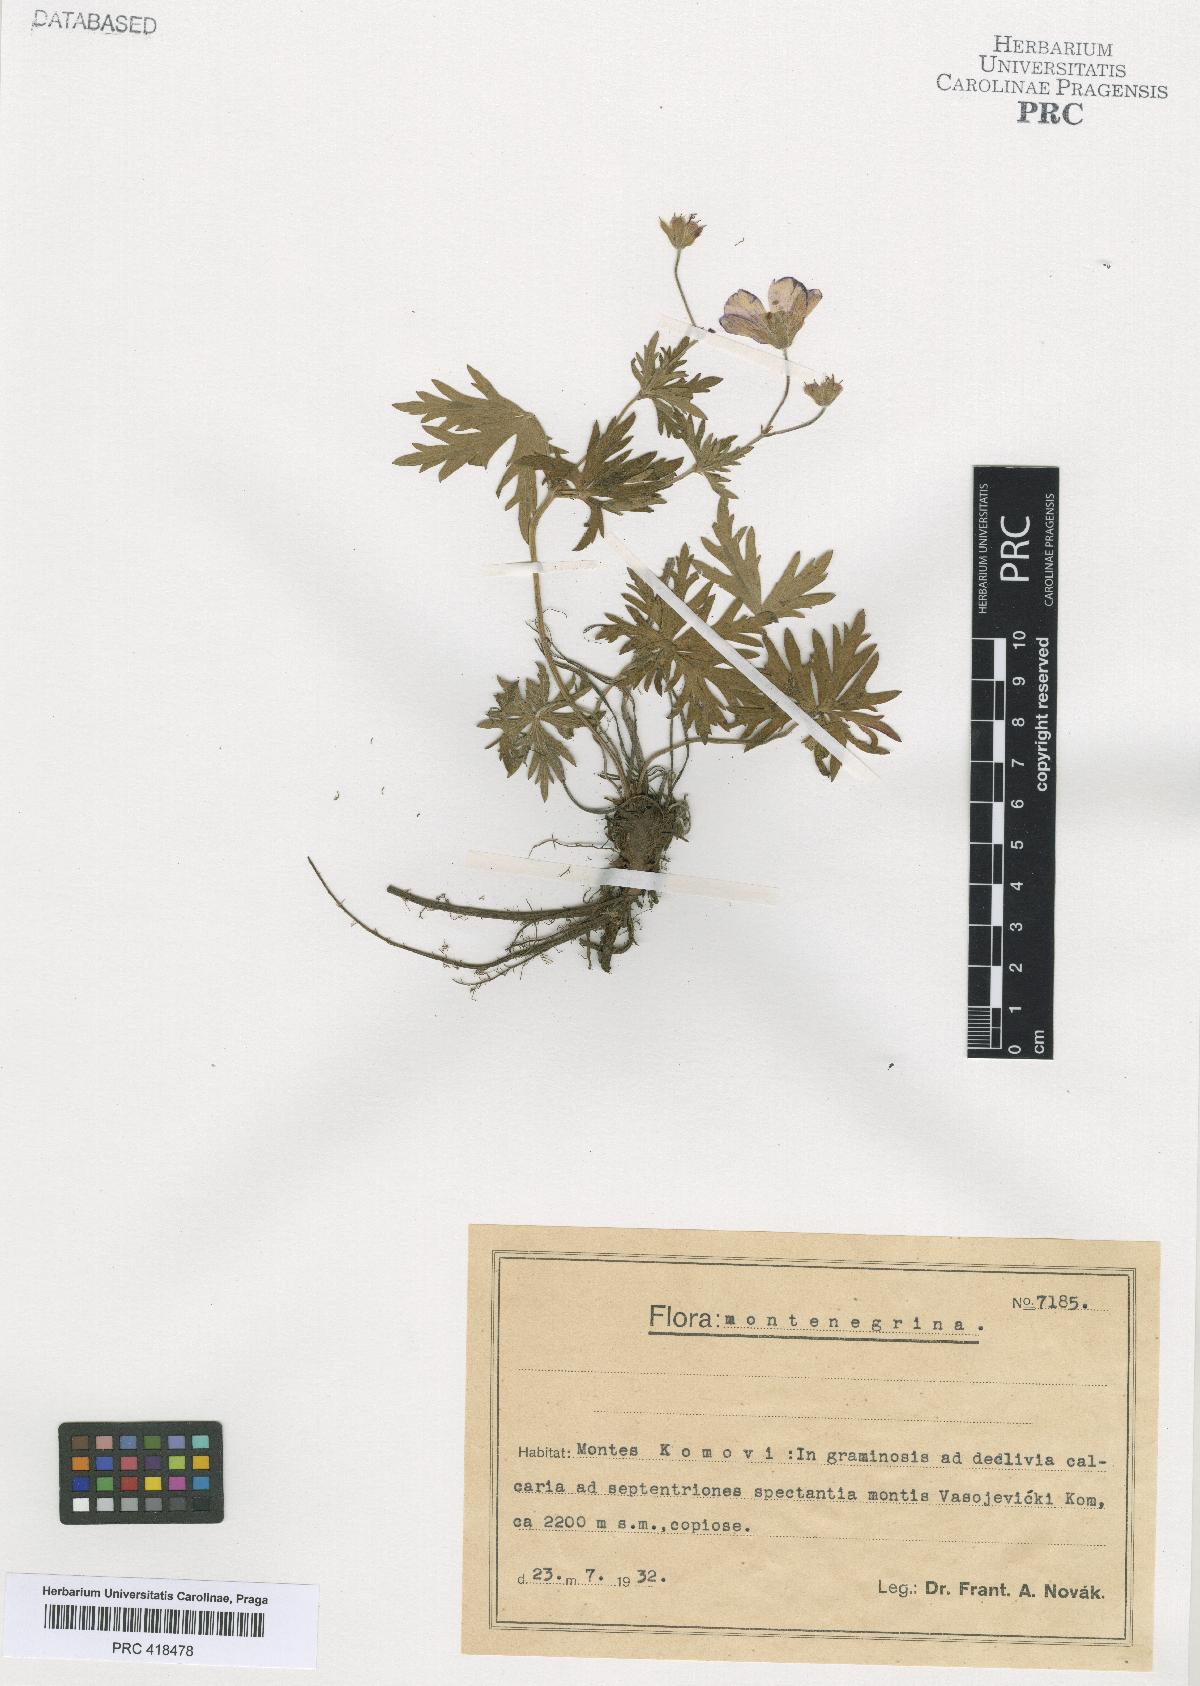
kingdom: Plantae
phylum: Tracheophyta
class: Magnoliopsida
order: Geraniales
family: Geraniaceae
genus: Geranium
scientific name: Geranium caeruleatum
